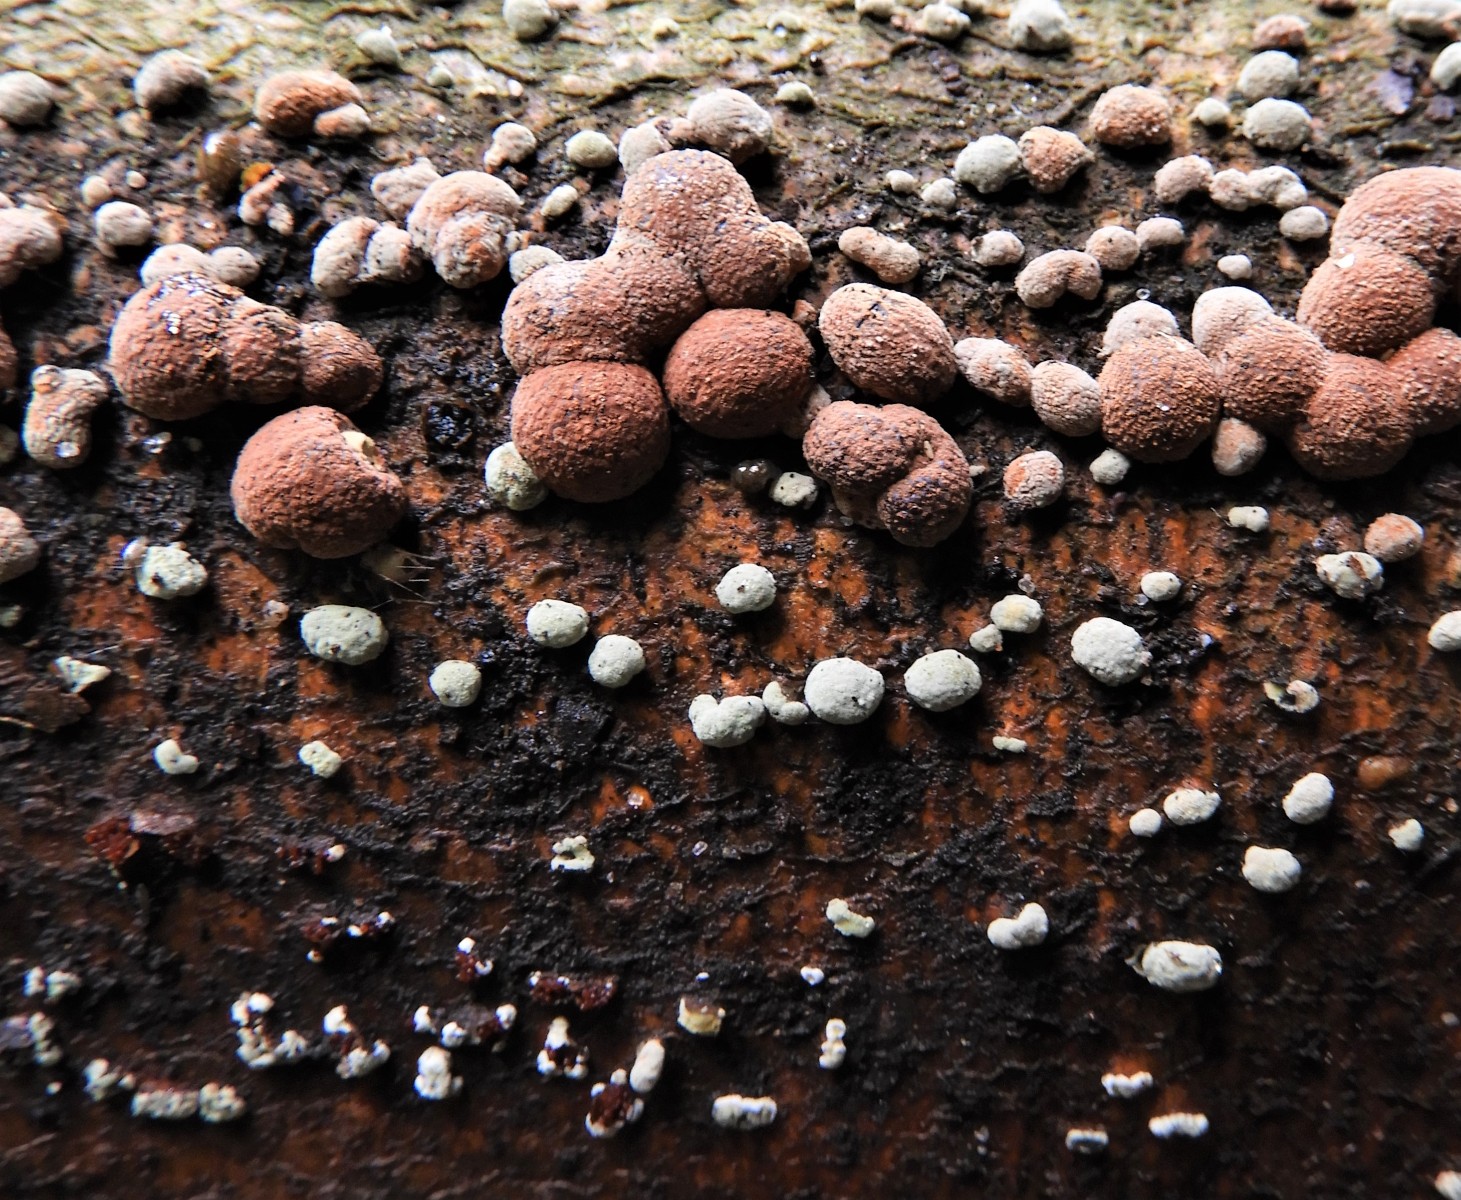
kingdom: Fungi
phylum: Ascomycota
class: Sordariomycetes
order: Xylariales
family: Hypoxylaceae
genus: Hypoxylon
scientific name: Hypoxylon fragiforme
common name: kuljordbær
